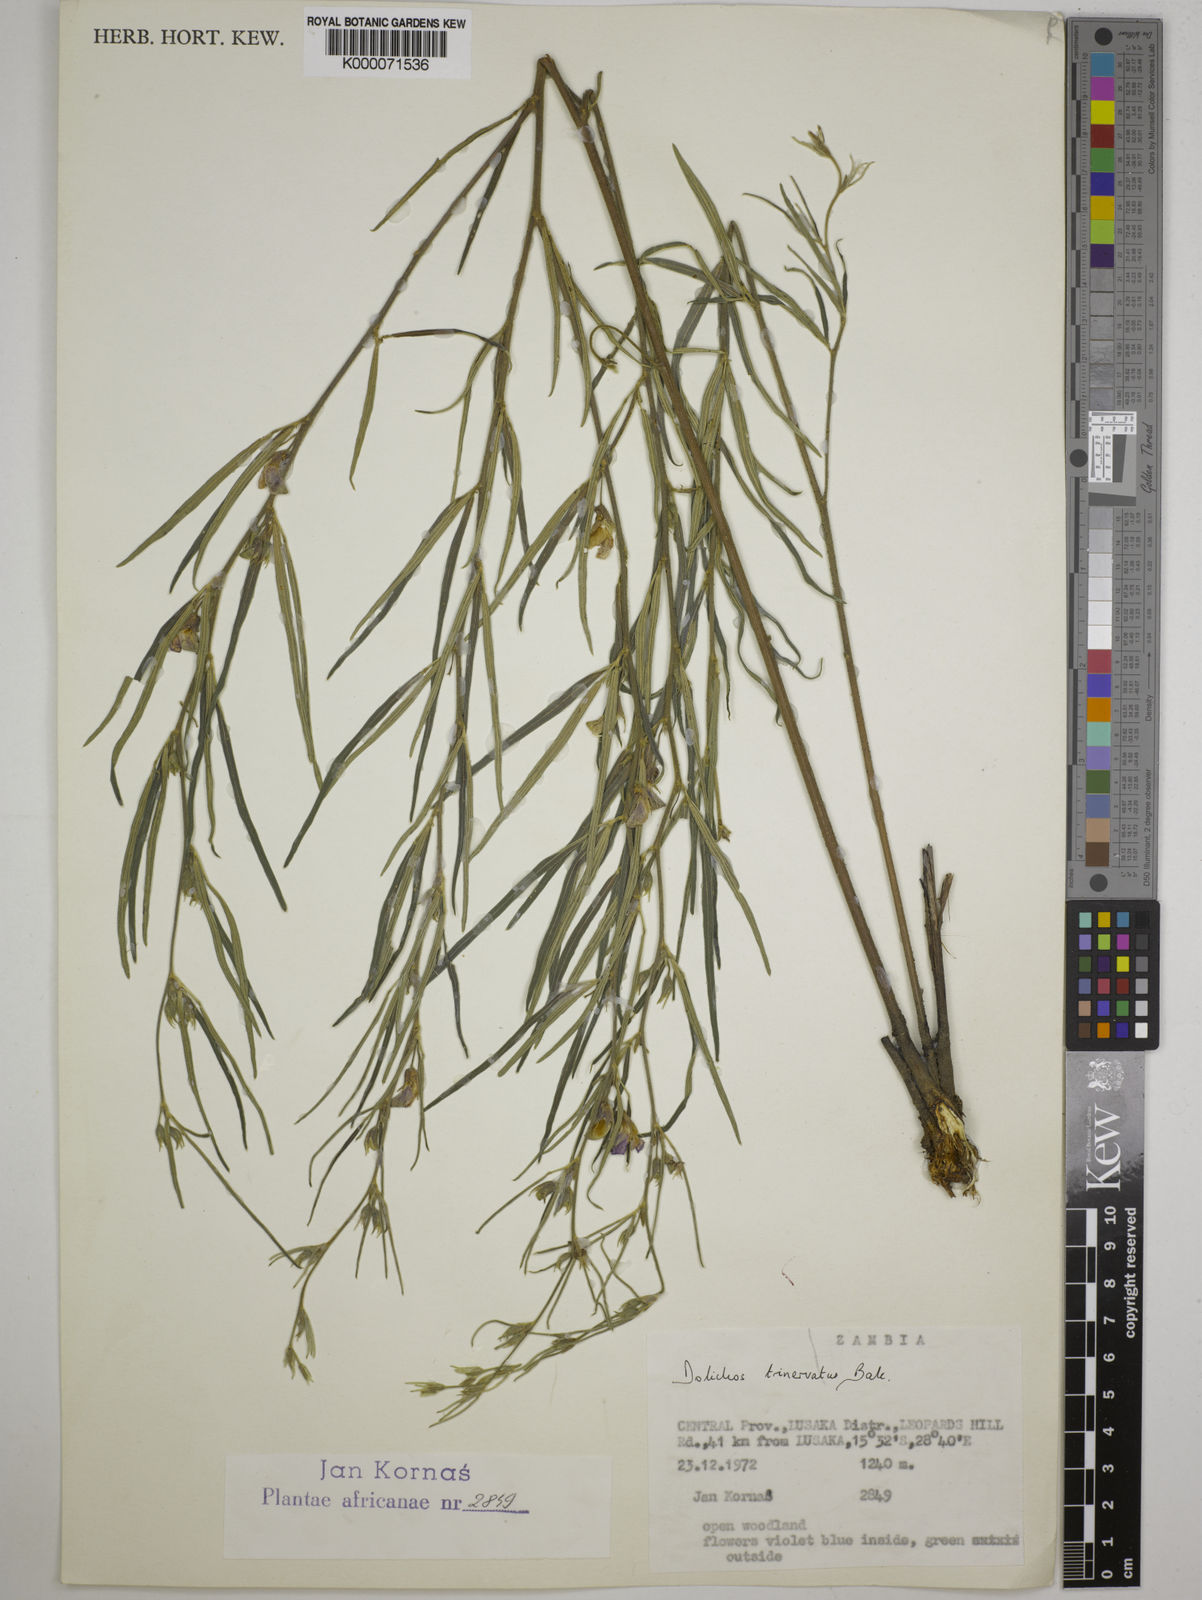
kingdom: Plantae
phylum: Tracheophyta
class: Magnoliopsida
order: Fabales
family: Fabaceae
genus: Dolichos
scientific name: Dolichos trinervatus
